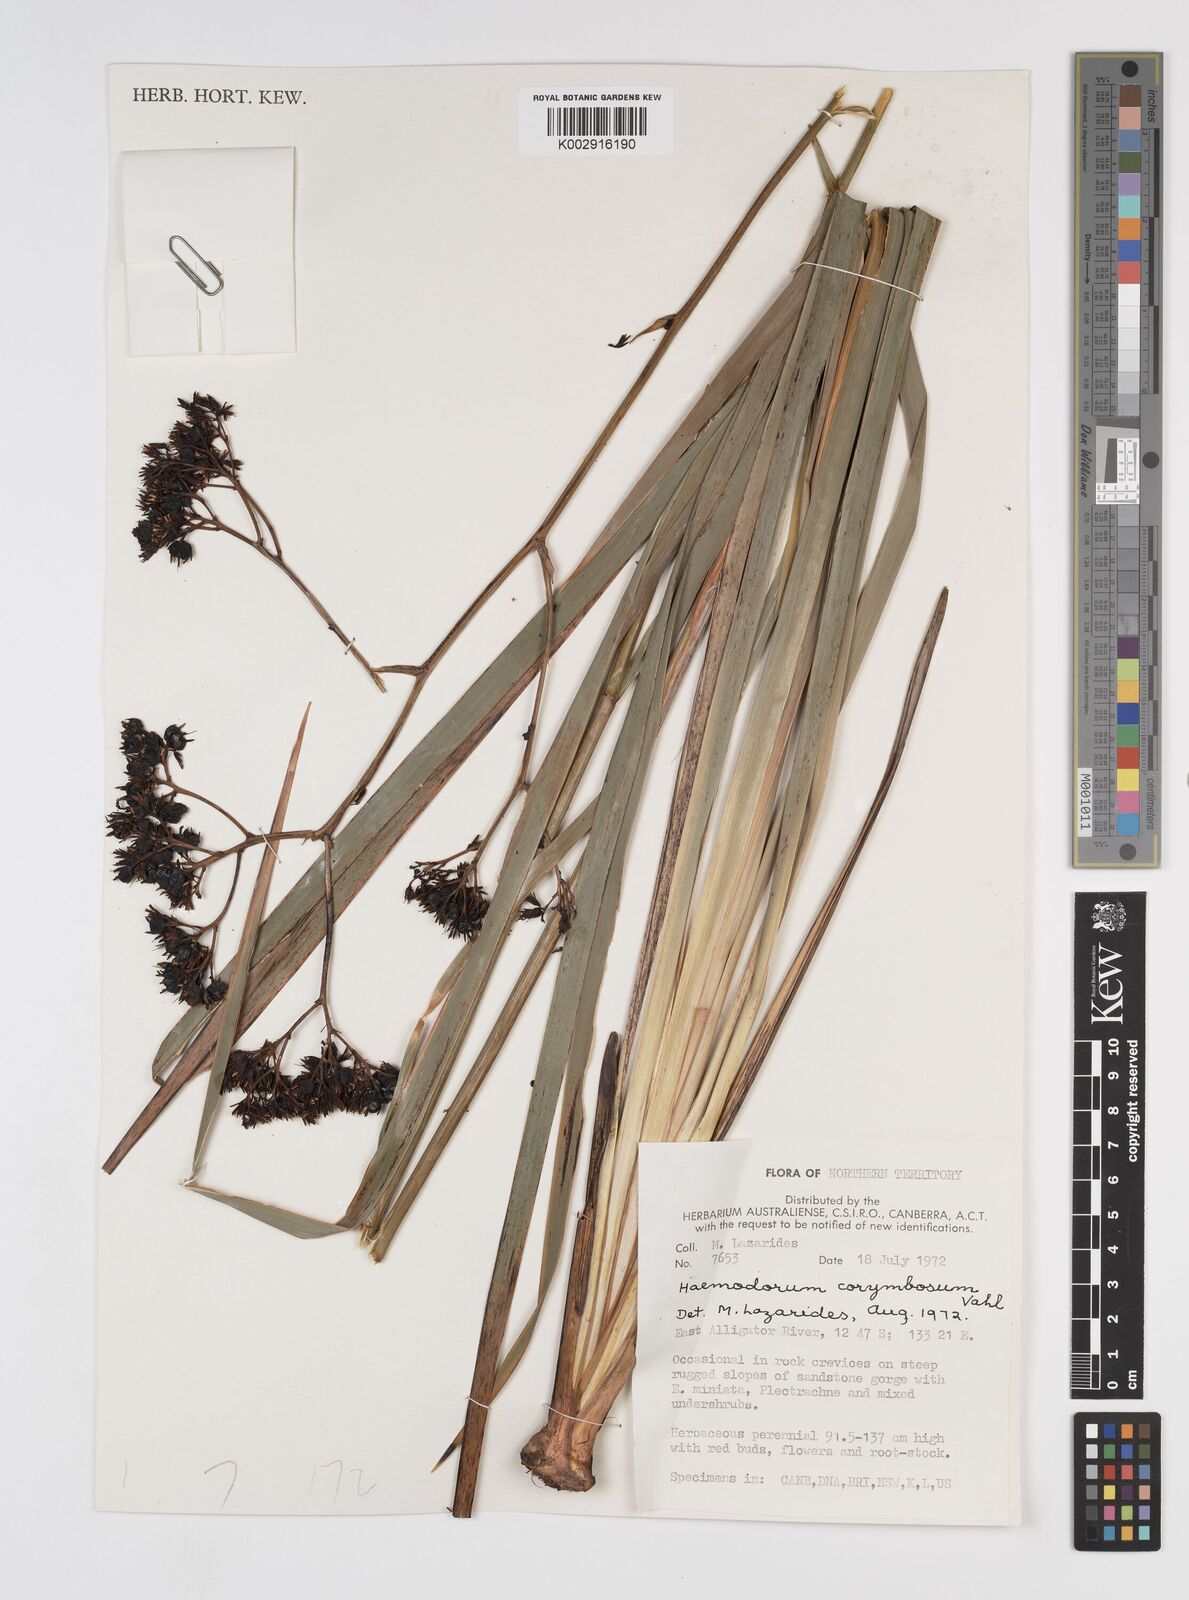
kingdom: Plantae
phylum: Tracheophyta
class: Liliopsida
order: Commelinales
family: Haemodoraceae
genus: Haemodorum
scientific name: Haemodorum corymbosum
